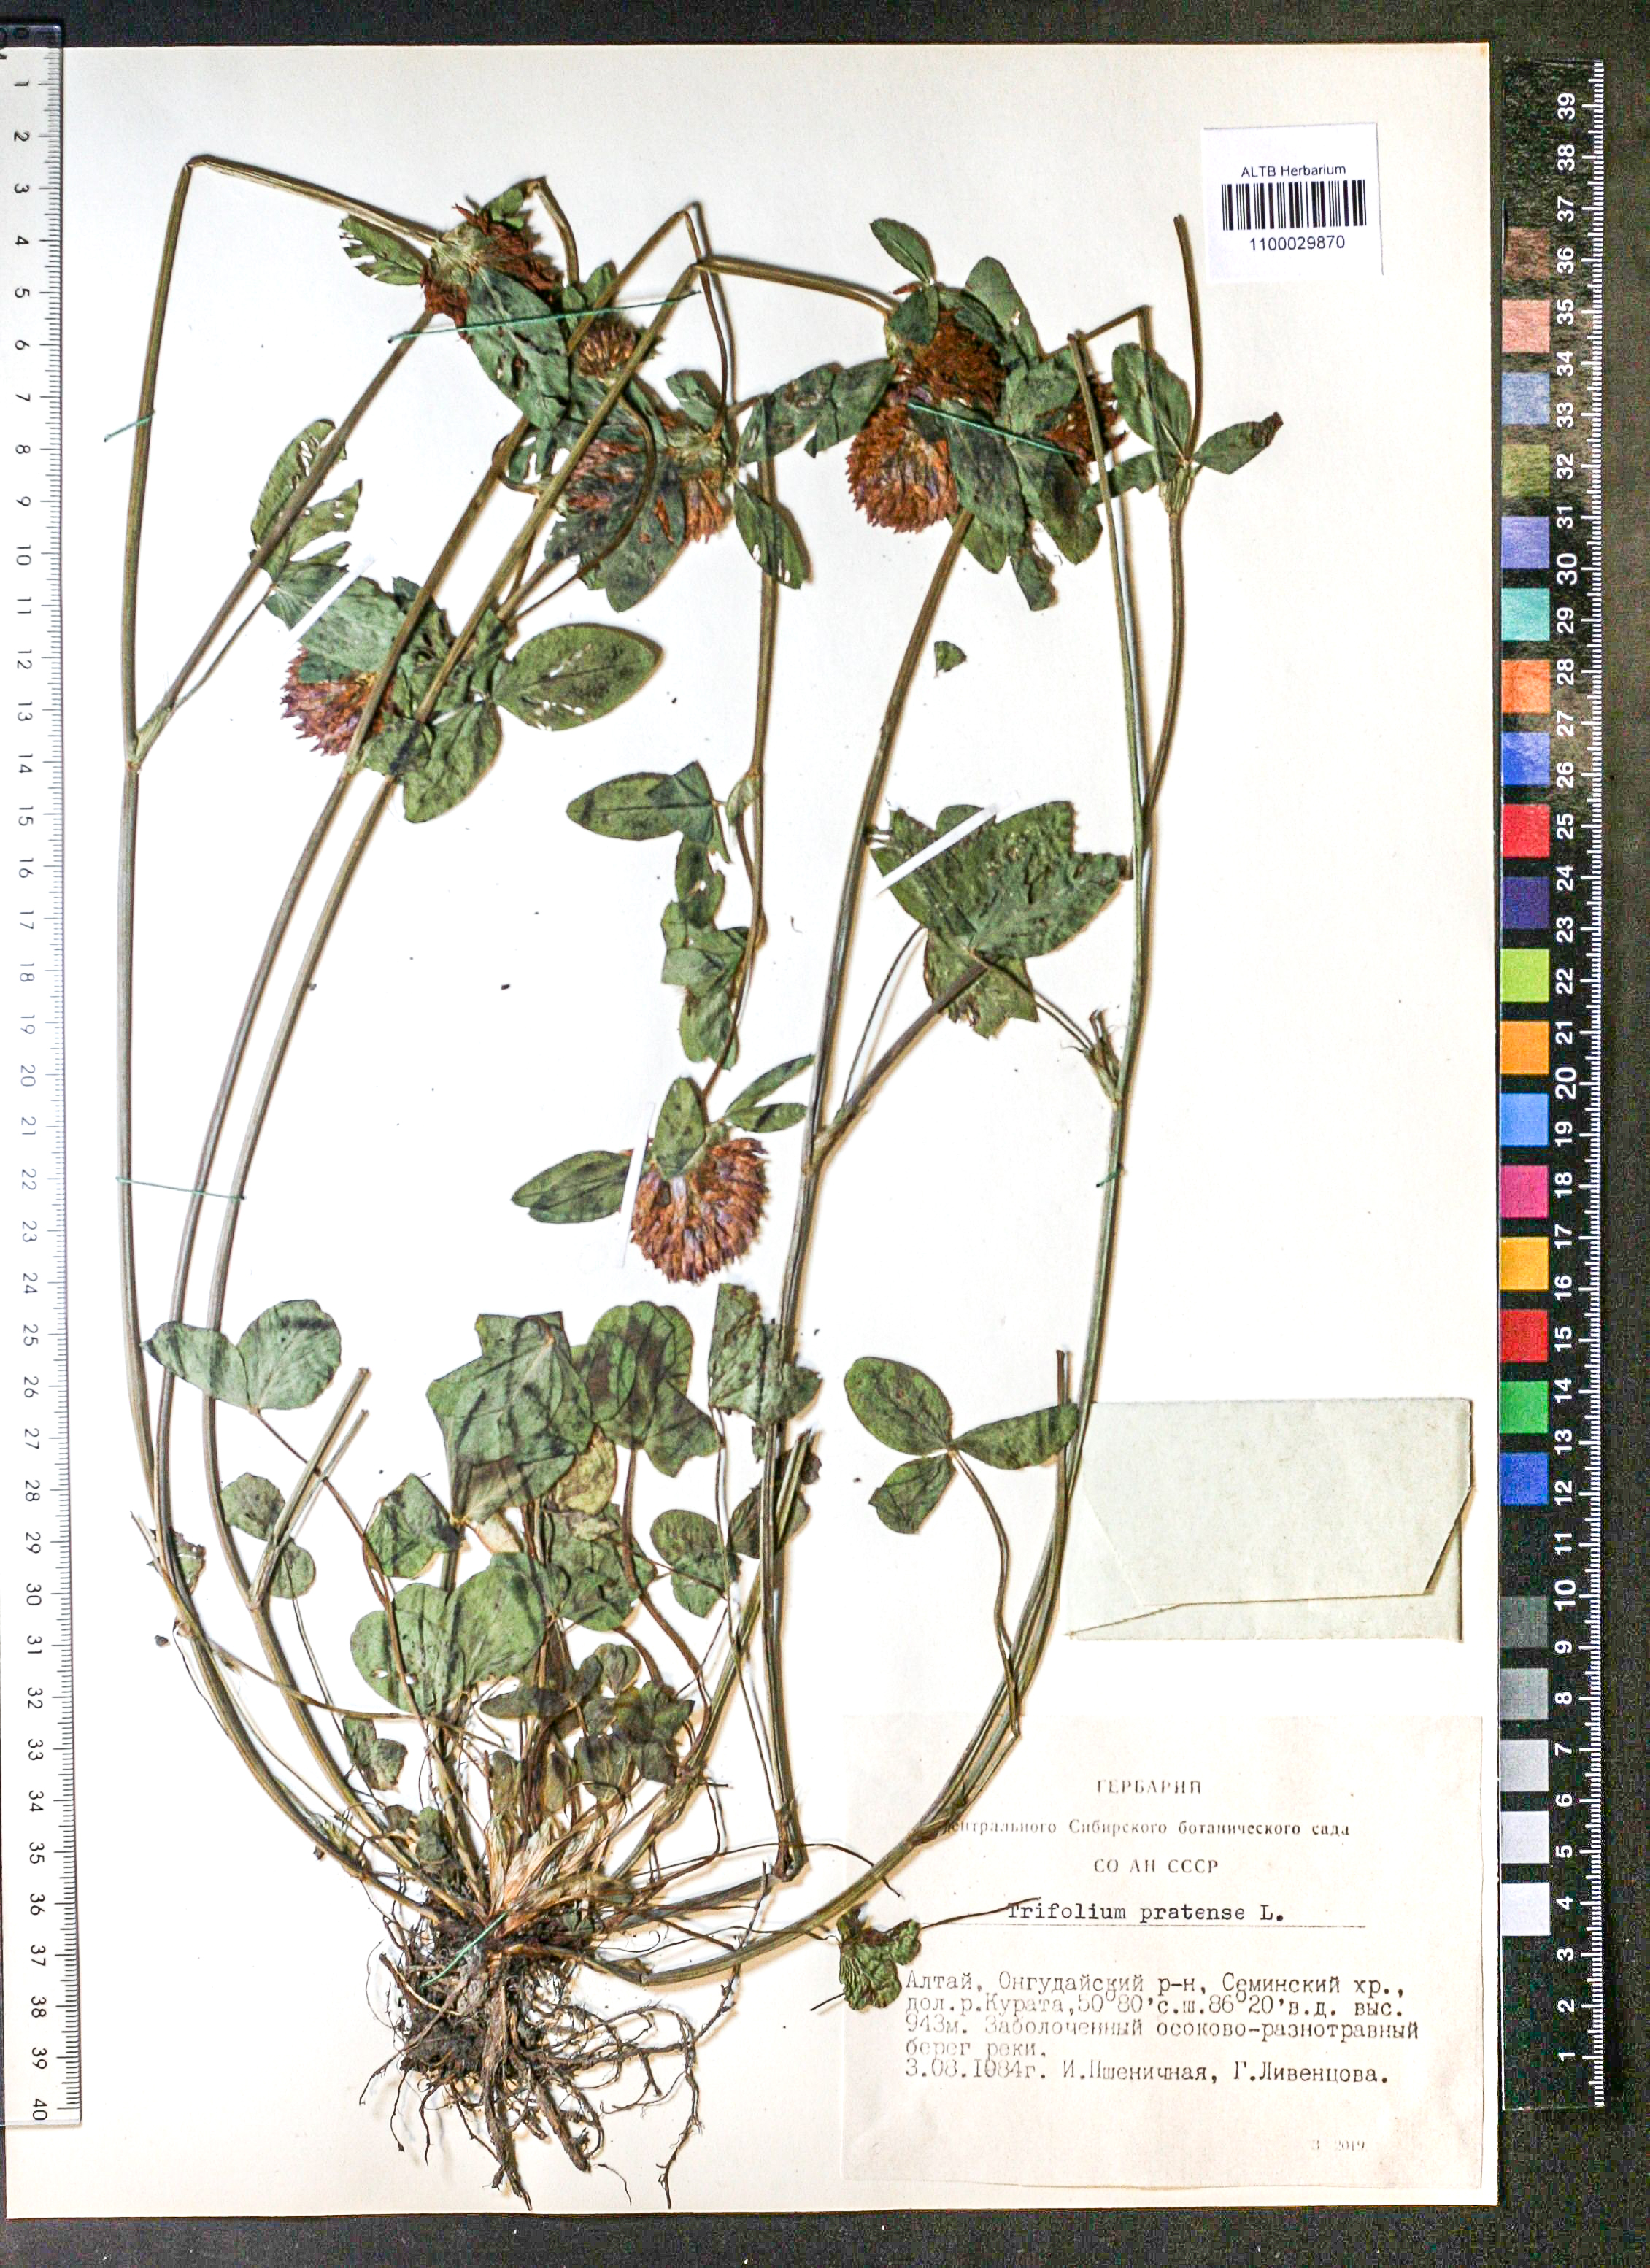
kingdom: Plantae
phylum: Tracheophyta
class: Magnoliopsida
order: Fabales
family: Fabaceae
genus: Trifolium
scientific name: Trifolium pratense
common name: Red clover
